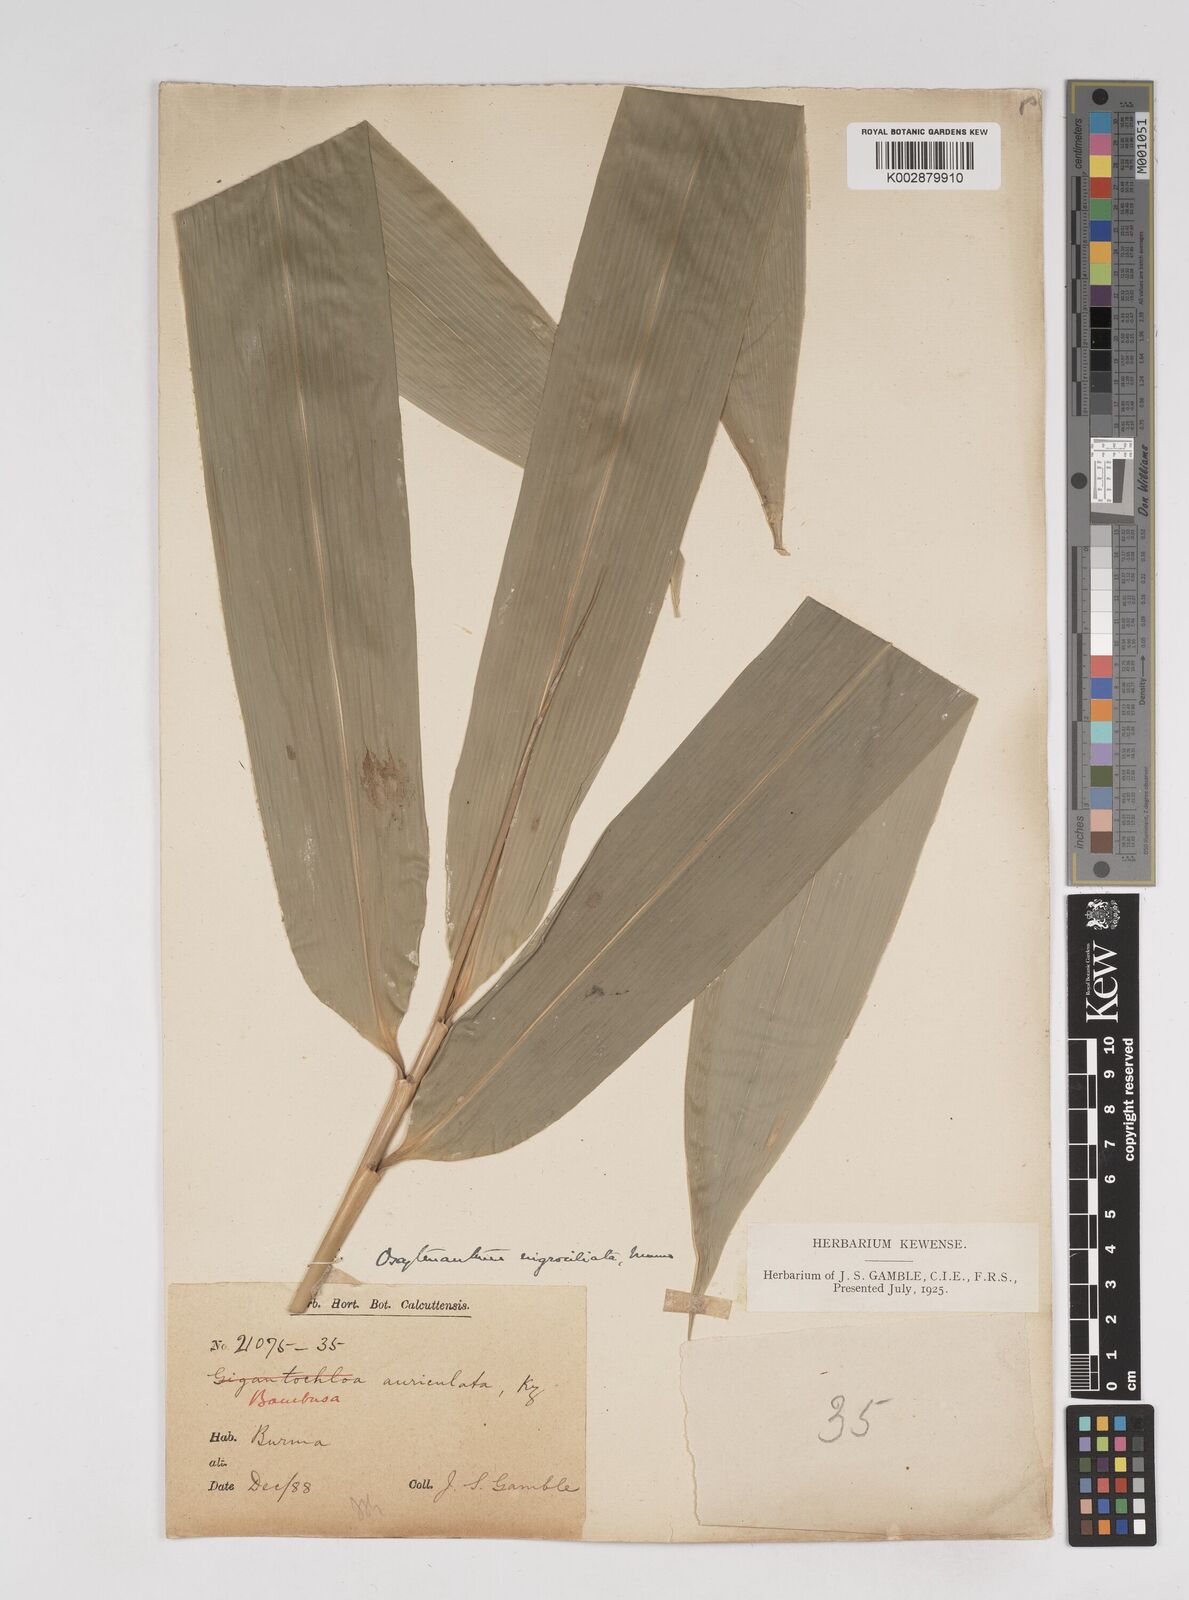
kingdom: Plantae
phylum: Tracheophyta
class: Liliopsida
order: Poales
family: Poaceae
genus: Gigantochloa
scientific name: Gigantochloa nigrociliata
